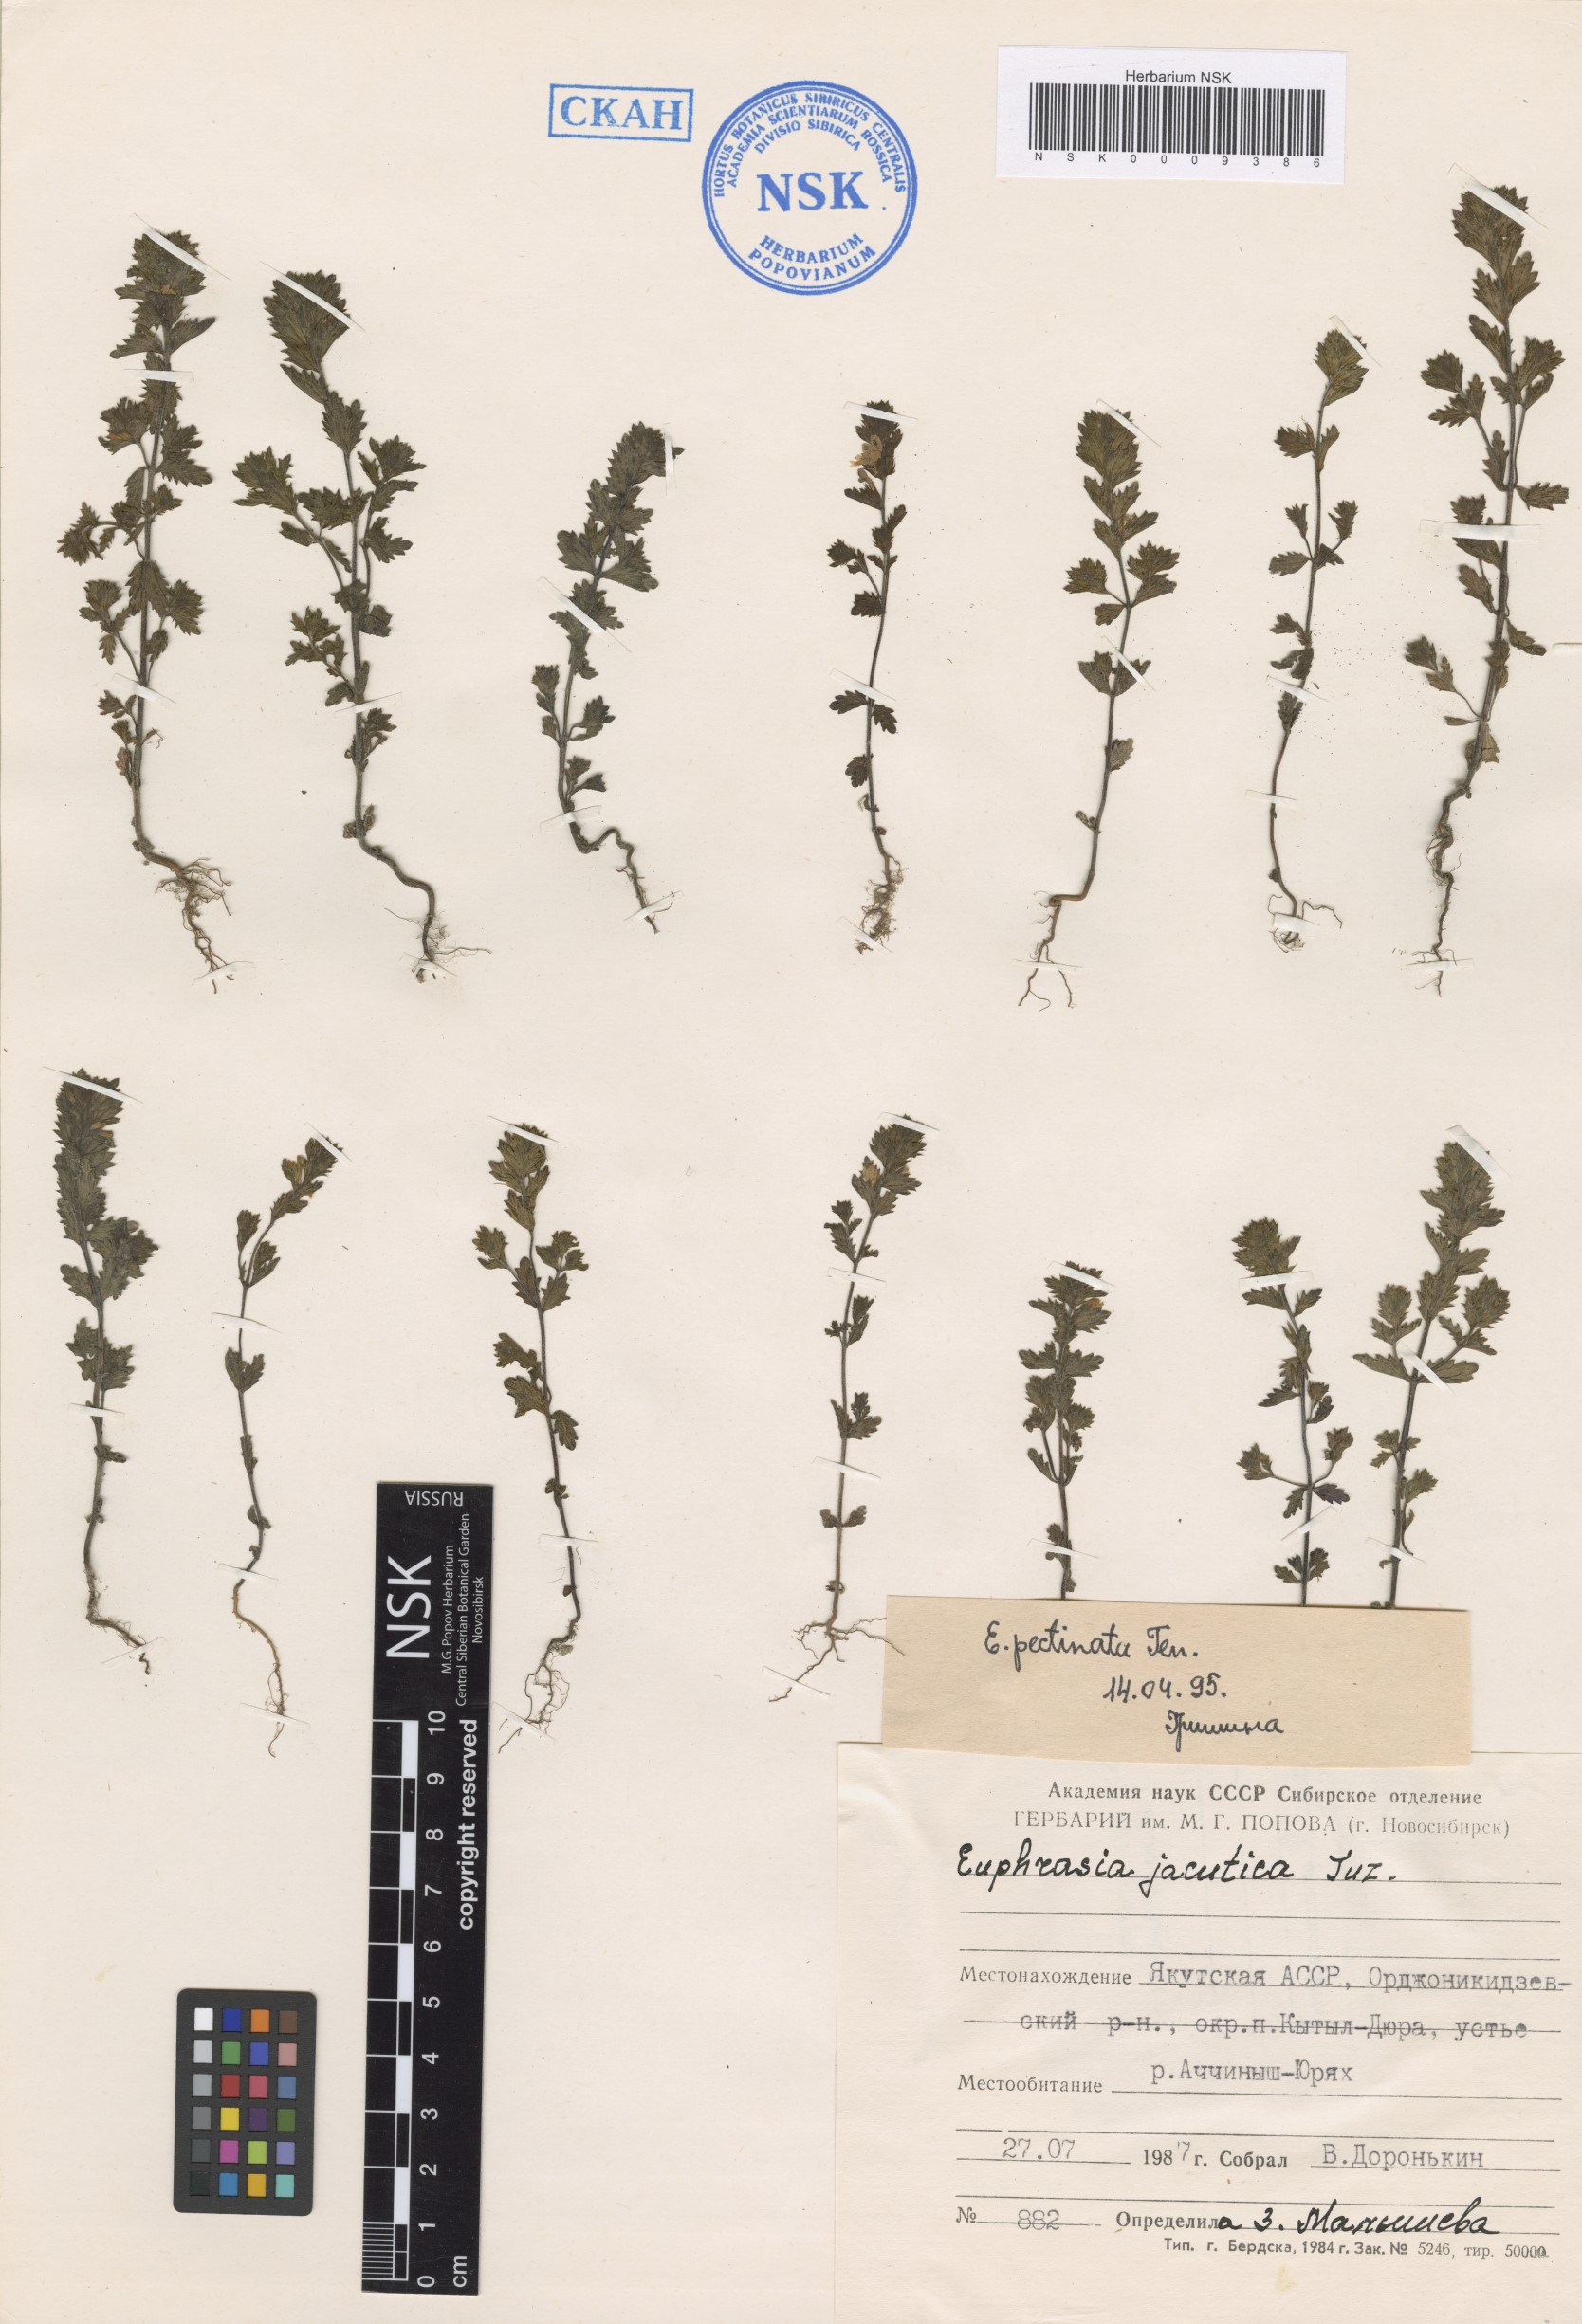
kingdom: Plantae
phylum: Tracheophyta
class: Magnoliopsida
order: Lamiales
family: Orobanchaceae
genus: Euphrasia
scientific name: Euphrasia pectinata
